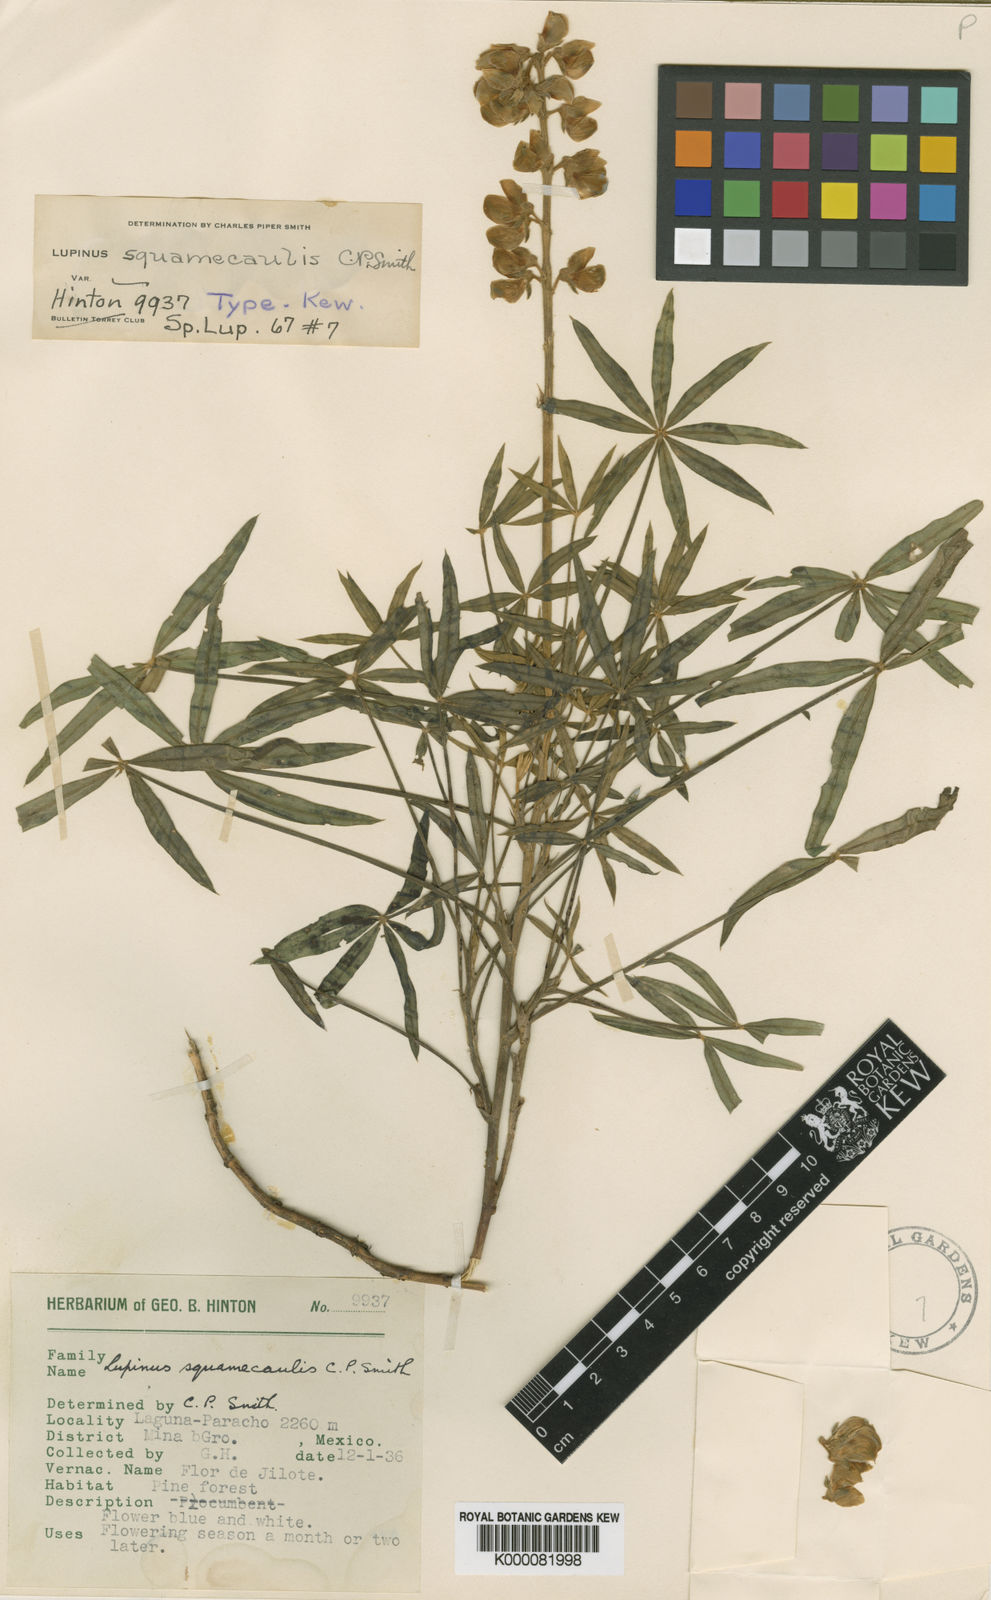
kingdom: Plantae
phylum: Tracheophyta
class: Magnoliopsida
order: Fabales
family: Fabaceae
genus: Lupinus
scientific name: Lupinus maderensis
